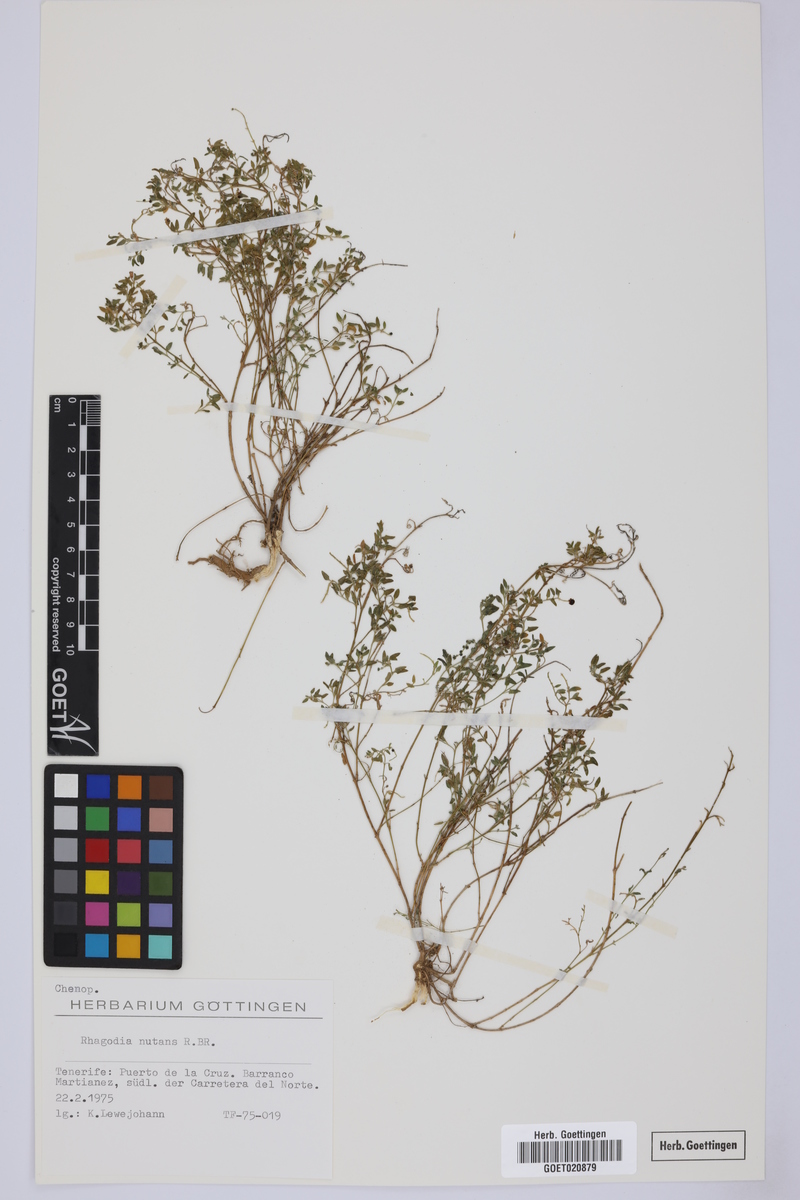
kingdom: Plantae
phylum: Tracheophyta
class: Magnoliopsida
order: Caryophyllales
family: Amaranthaceae
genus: Chenopodium
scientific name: Chenopodium nutans
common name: Climbing-saltbush
